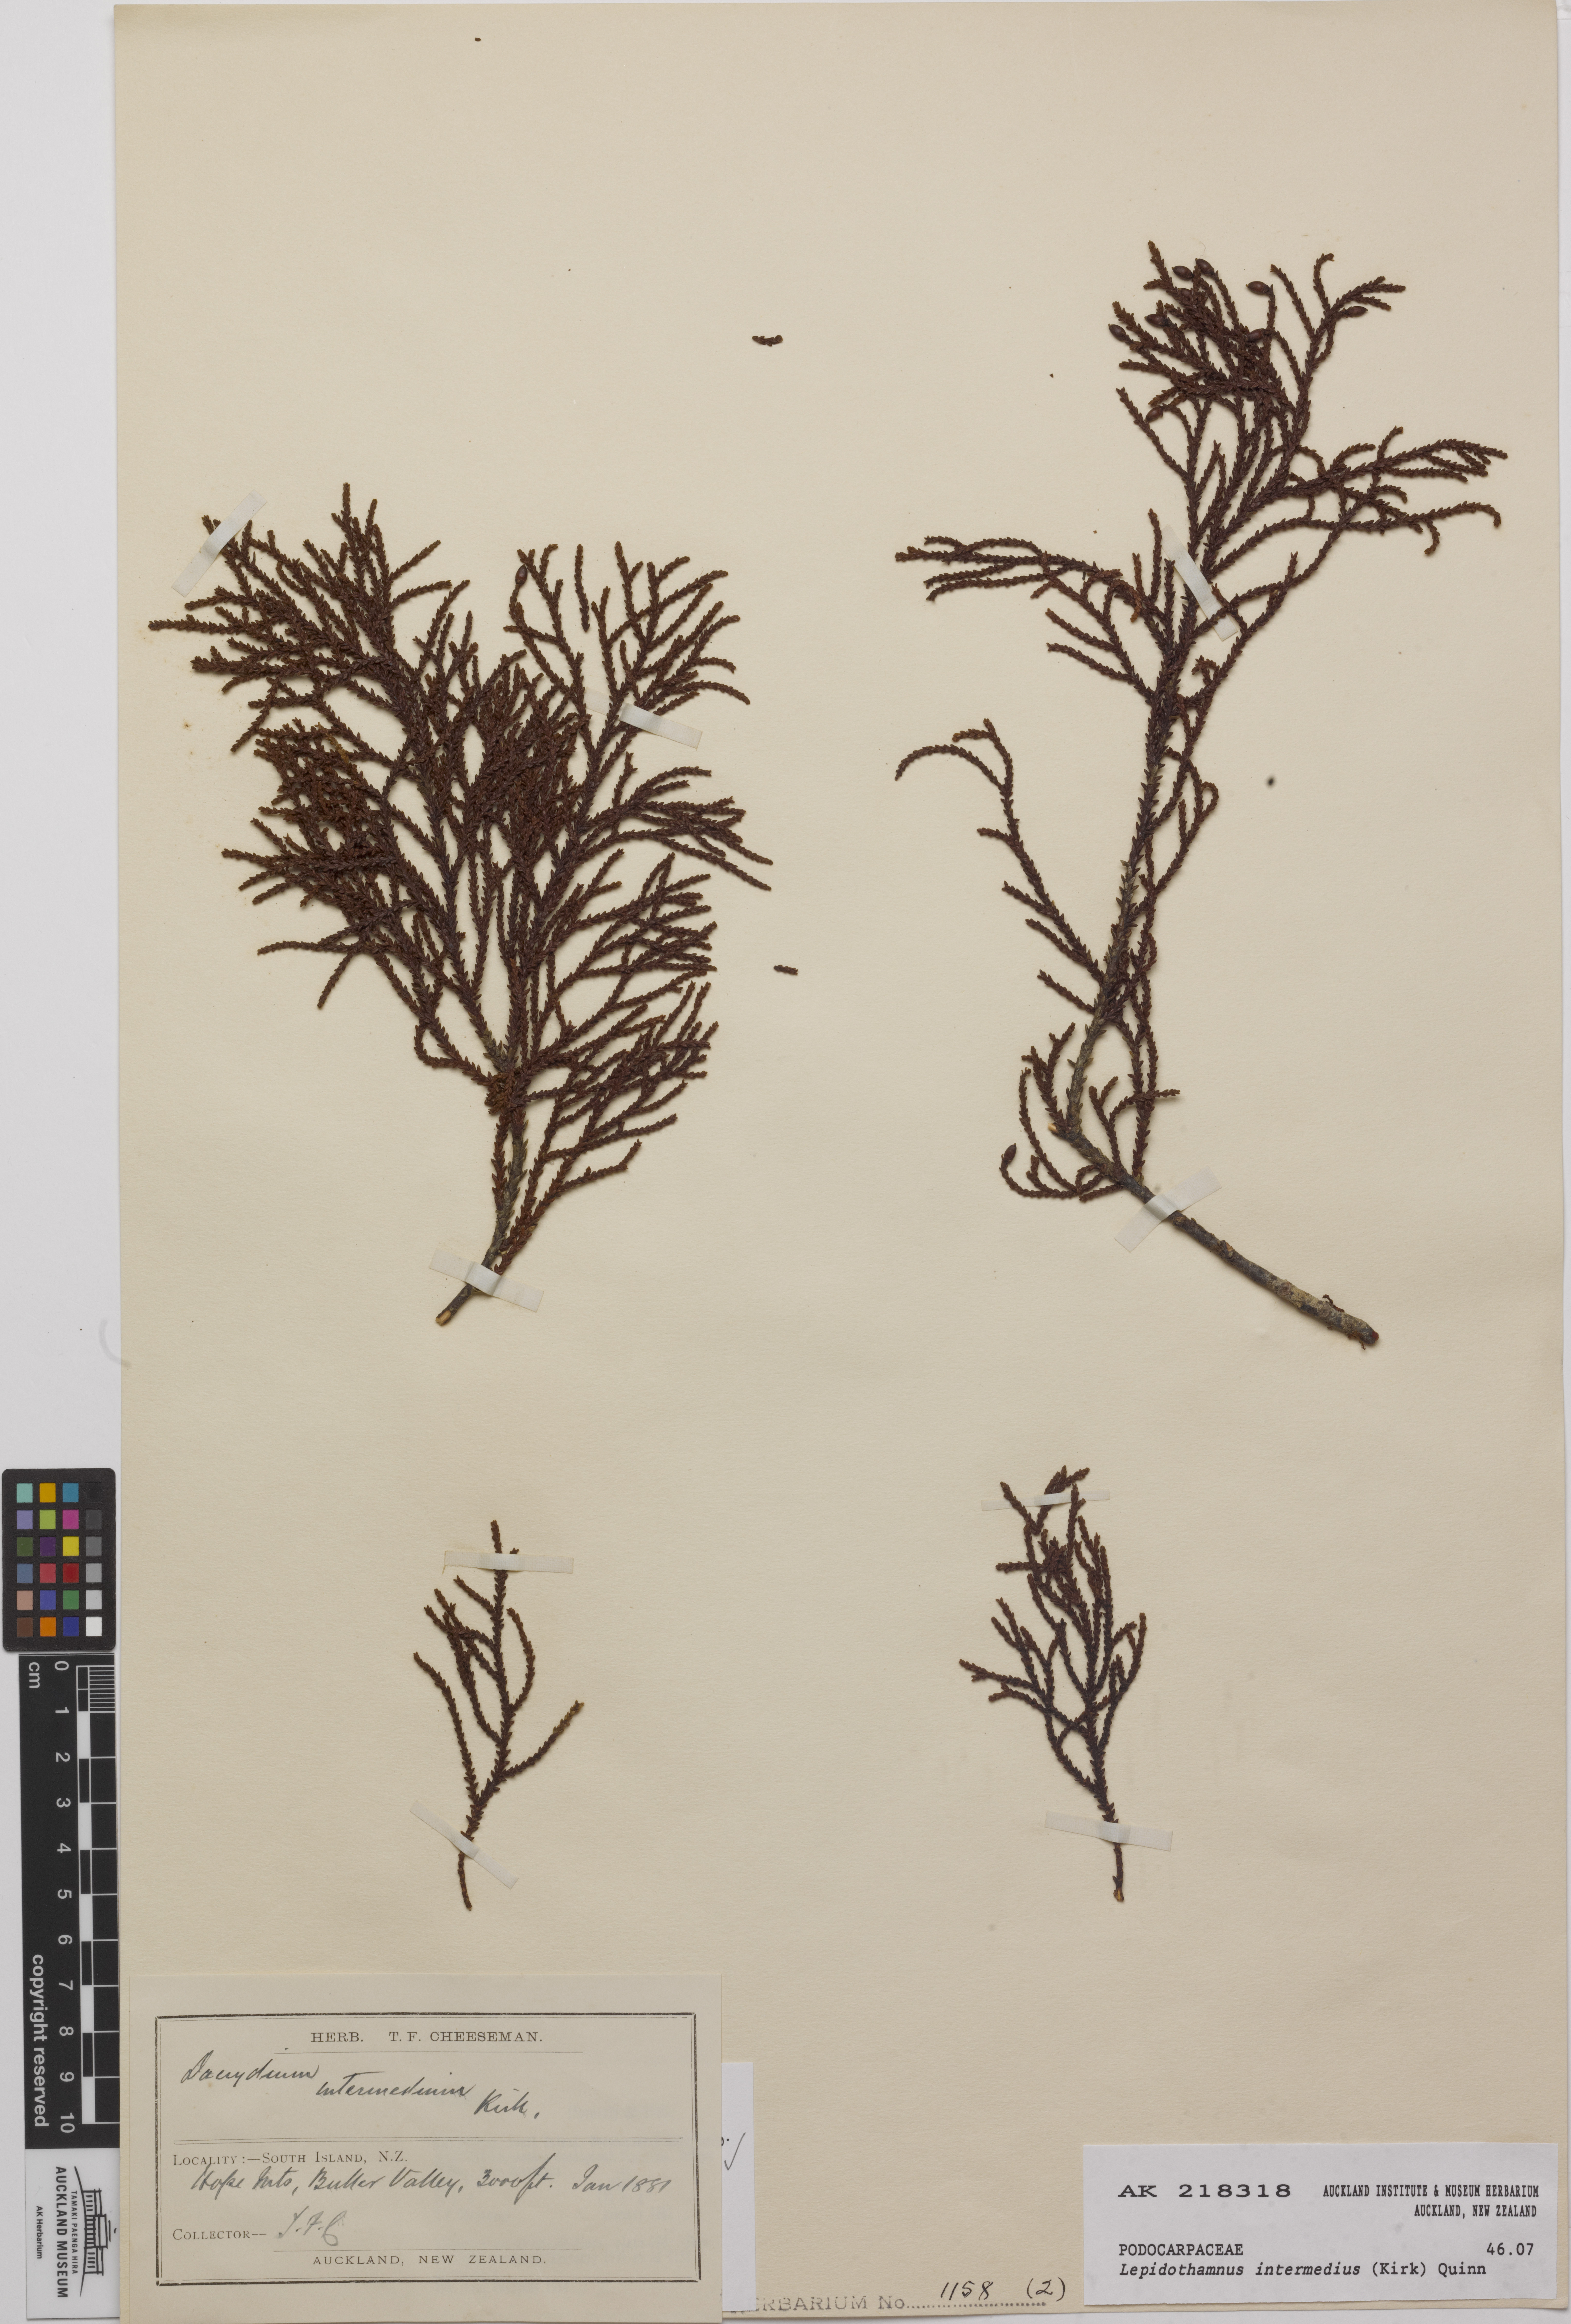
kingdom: Plantae
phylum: Tracheophyta
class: Pinopsida
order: Pinales
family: Podocarpaceae
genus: Lepidothamnus
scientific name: Lepidothamnus intermedius
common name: Yellow silver pine
